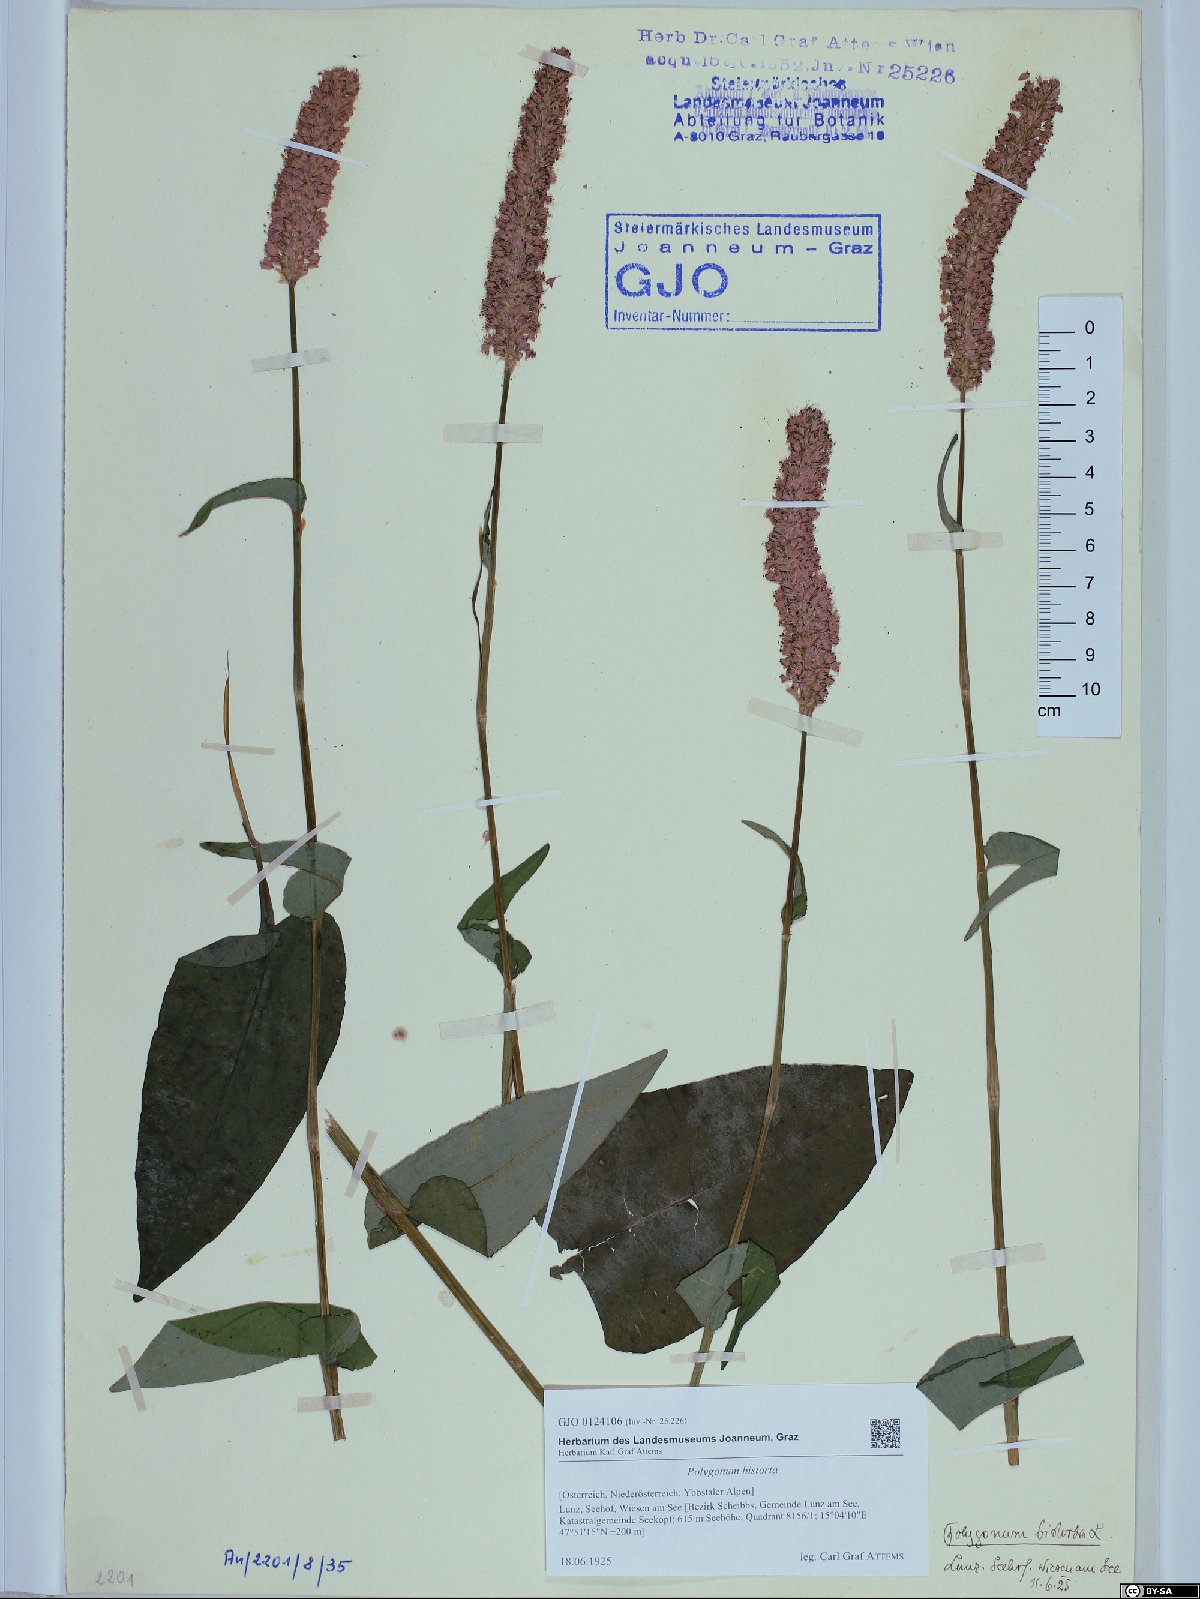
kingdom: Plantae
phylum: Tracheophyta
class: Magnoliopsida
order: Caryophyllales
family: Polygonaceae
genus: Bistorta
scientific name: Bistorta officinalis
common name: Common bistort
